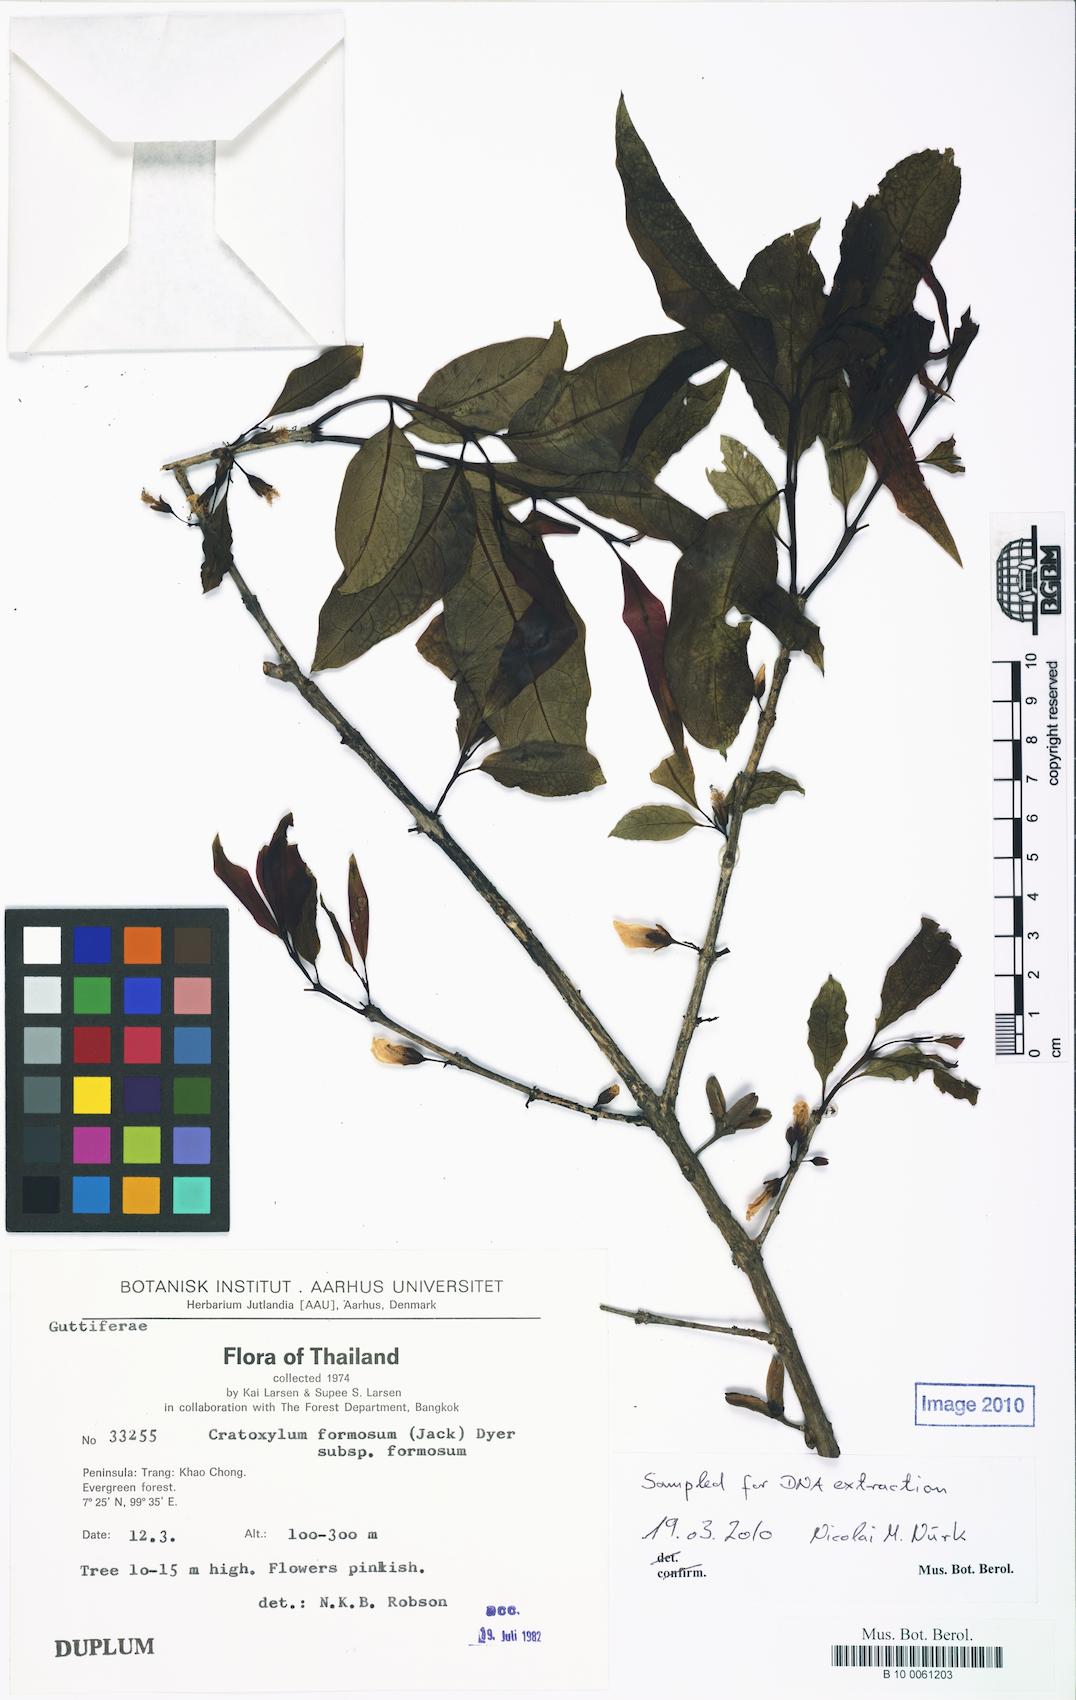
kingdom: Plantae
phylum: Tracheophyta
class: Magnoliopsida
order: Malpighiales
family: Hypericaceae
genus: Cratoxylum
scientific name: Cratoxylum formosum
